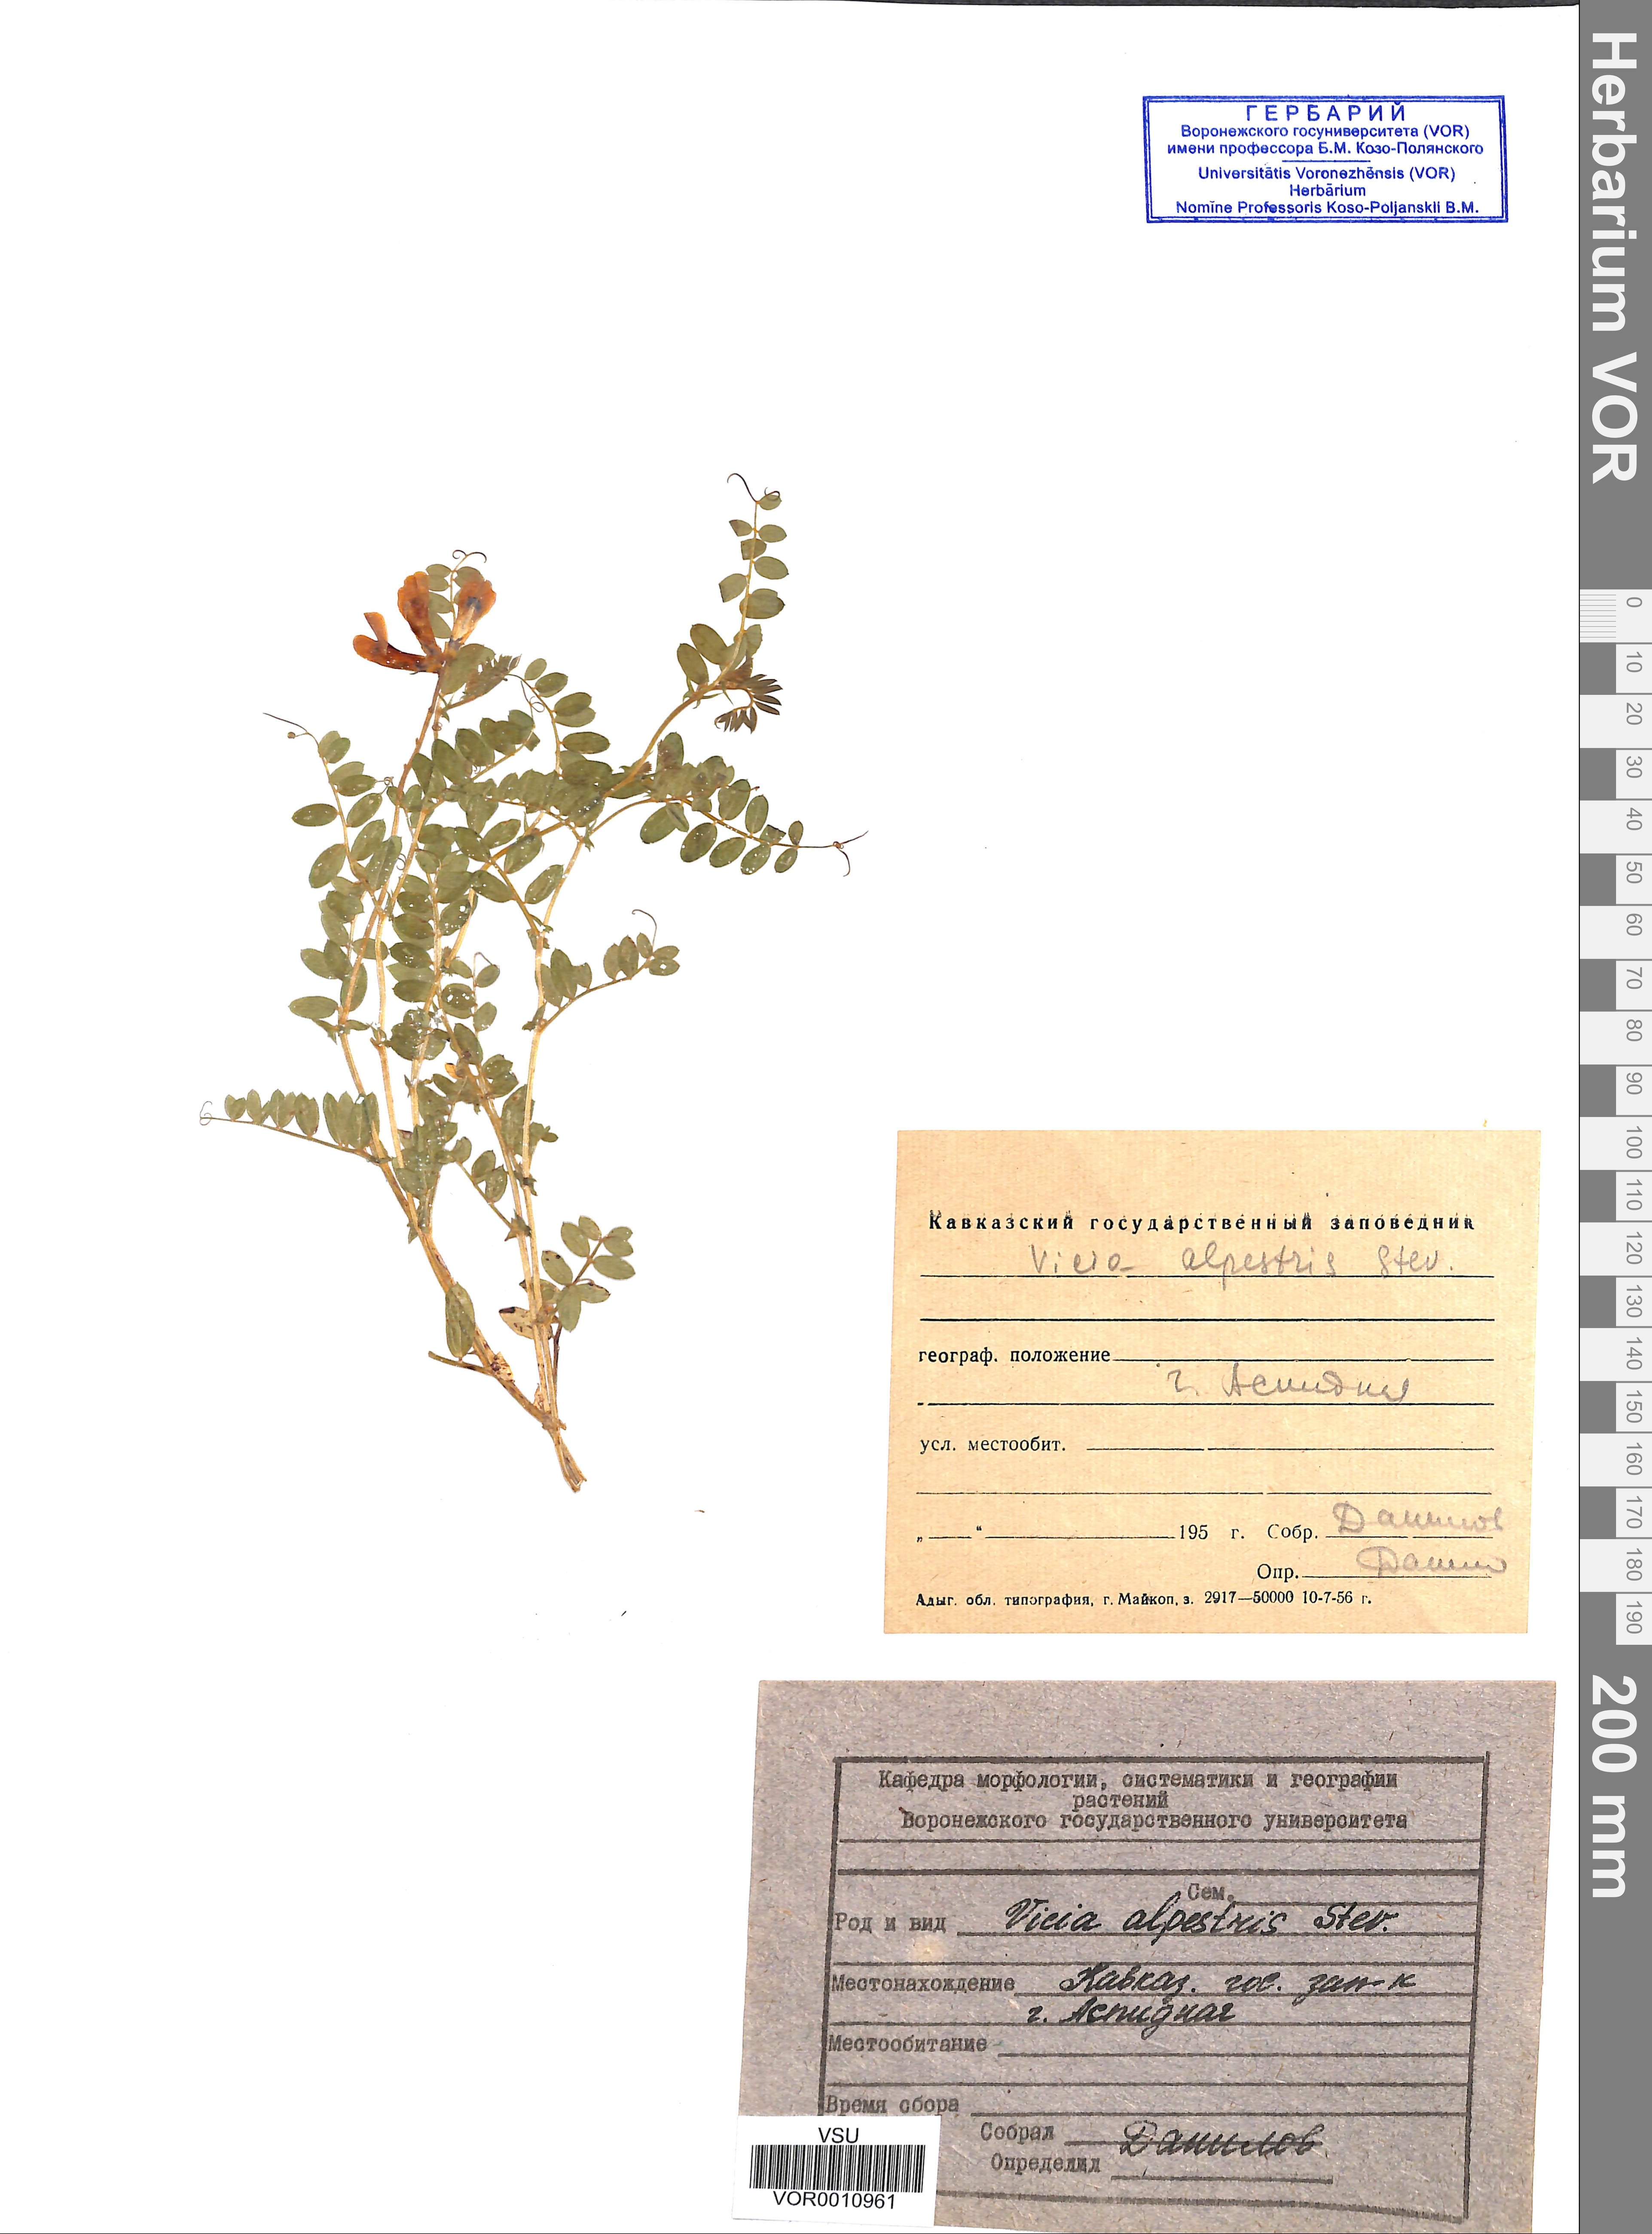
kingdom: Plantae
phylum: Tracheophyta
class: Magnoliopsida
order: Fabales
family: Fabaceae
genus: Vicia
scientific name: Vicia alpestris
